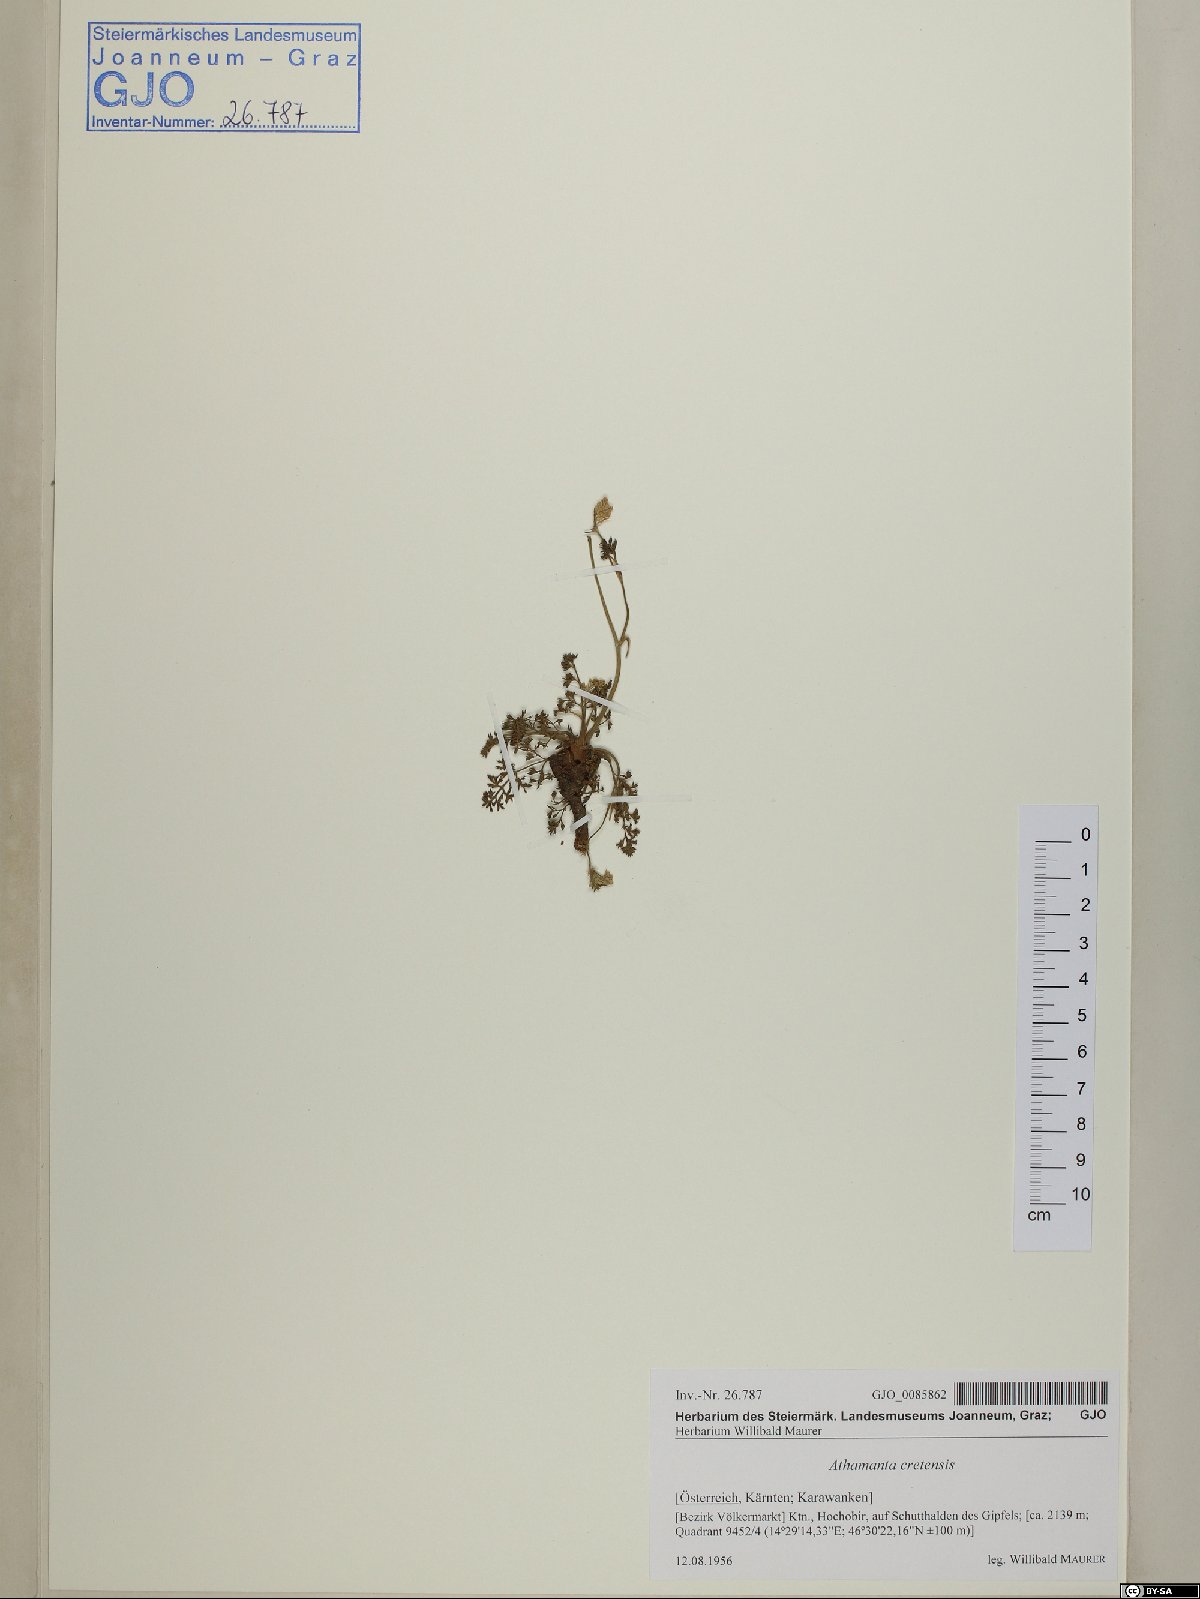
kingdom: Plantae
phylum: Tracheophyta
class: Magnoliopsida
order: Apiales
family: Apiaceae
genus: Athamanta
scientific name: Athamanta cretensis
